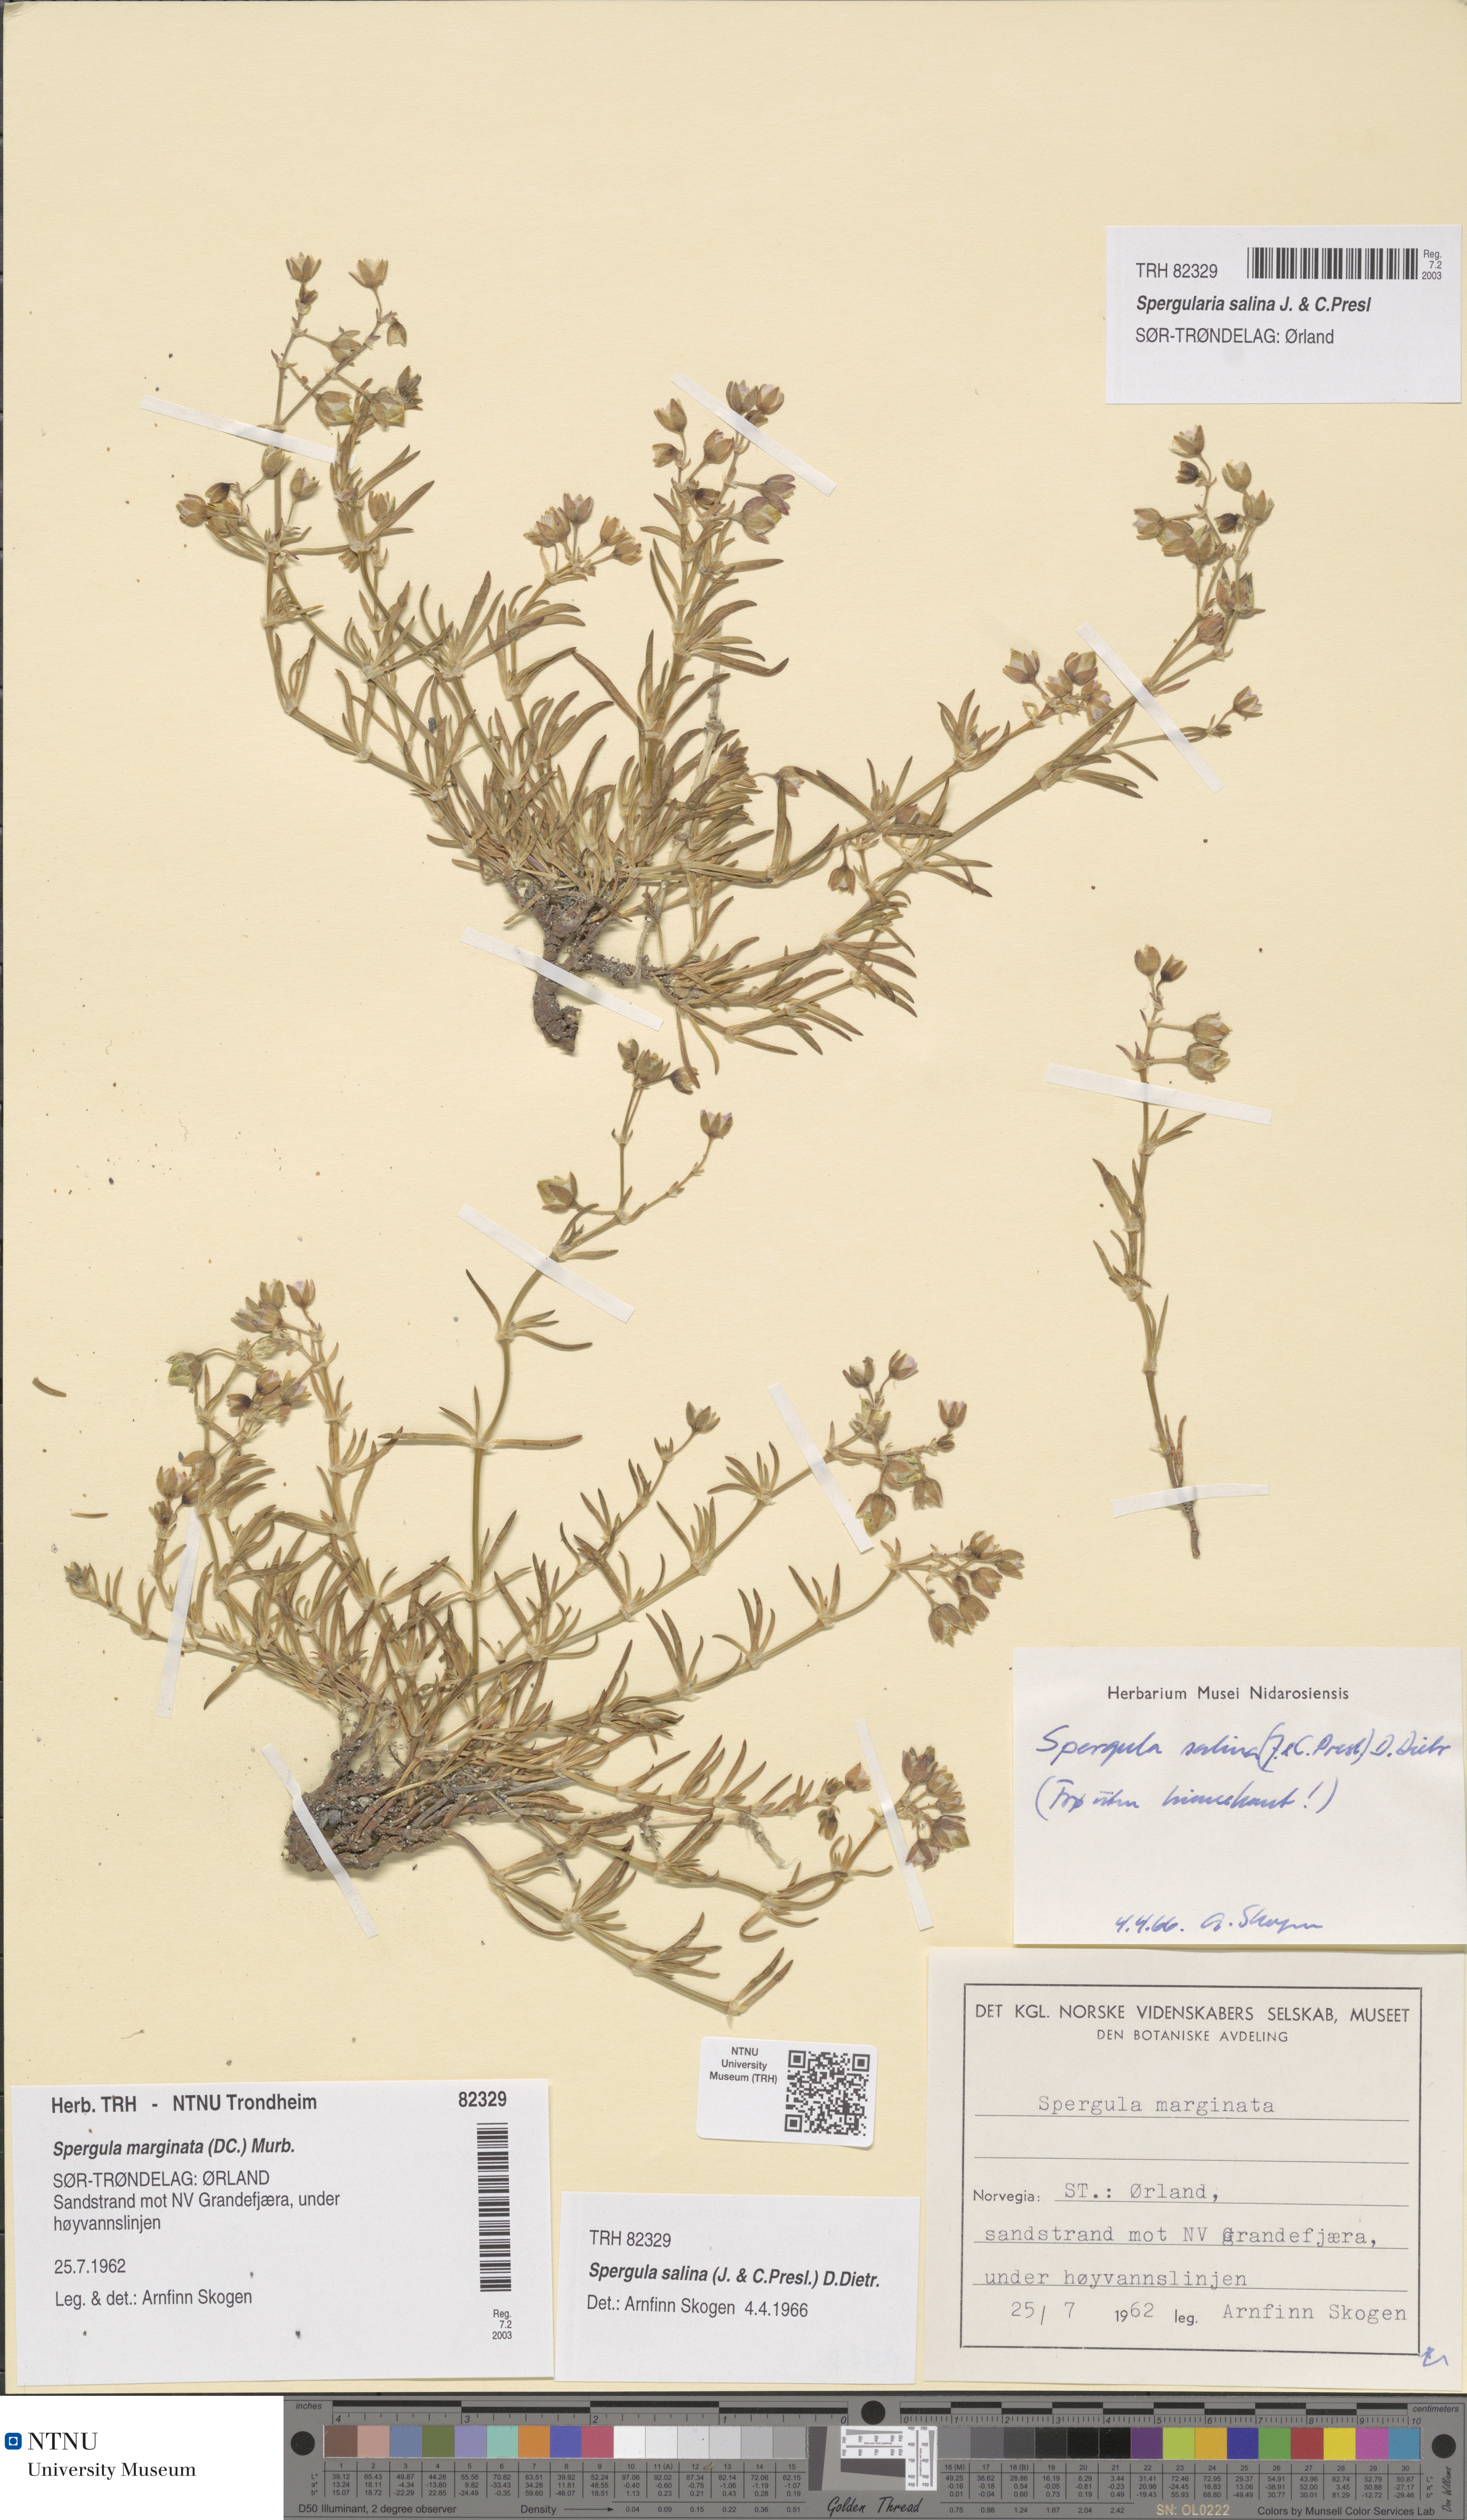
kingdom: Plantae
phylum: Tracheophyta
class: Magnoliopsida
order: Caryophyllales
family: Caryophyllaceae
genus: Spergularia
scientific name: Spergularia marina
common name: Lesser sea-spurrey
